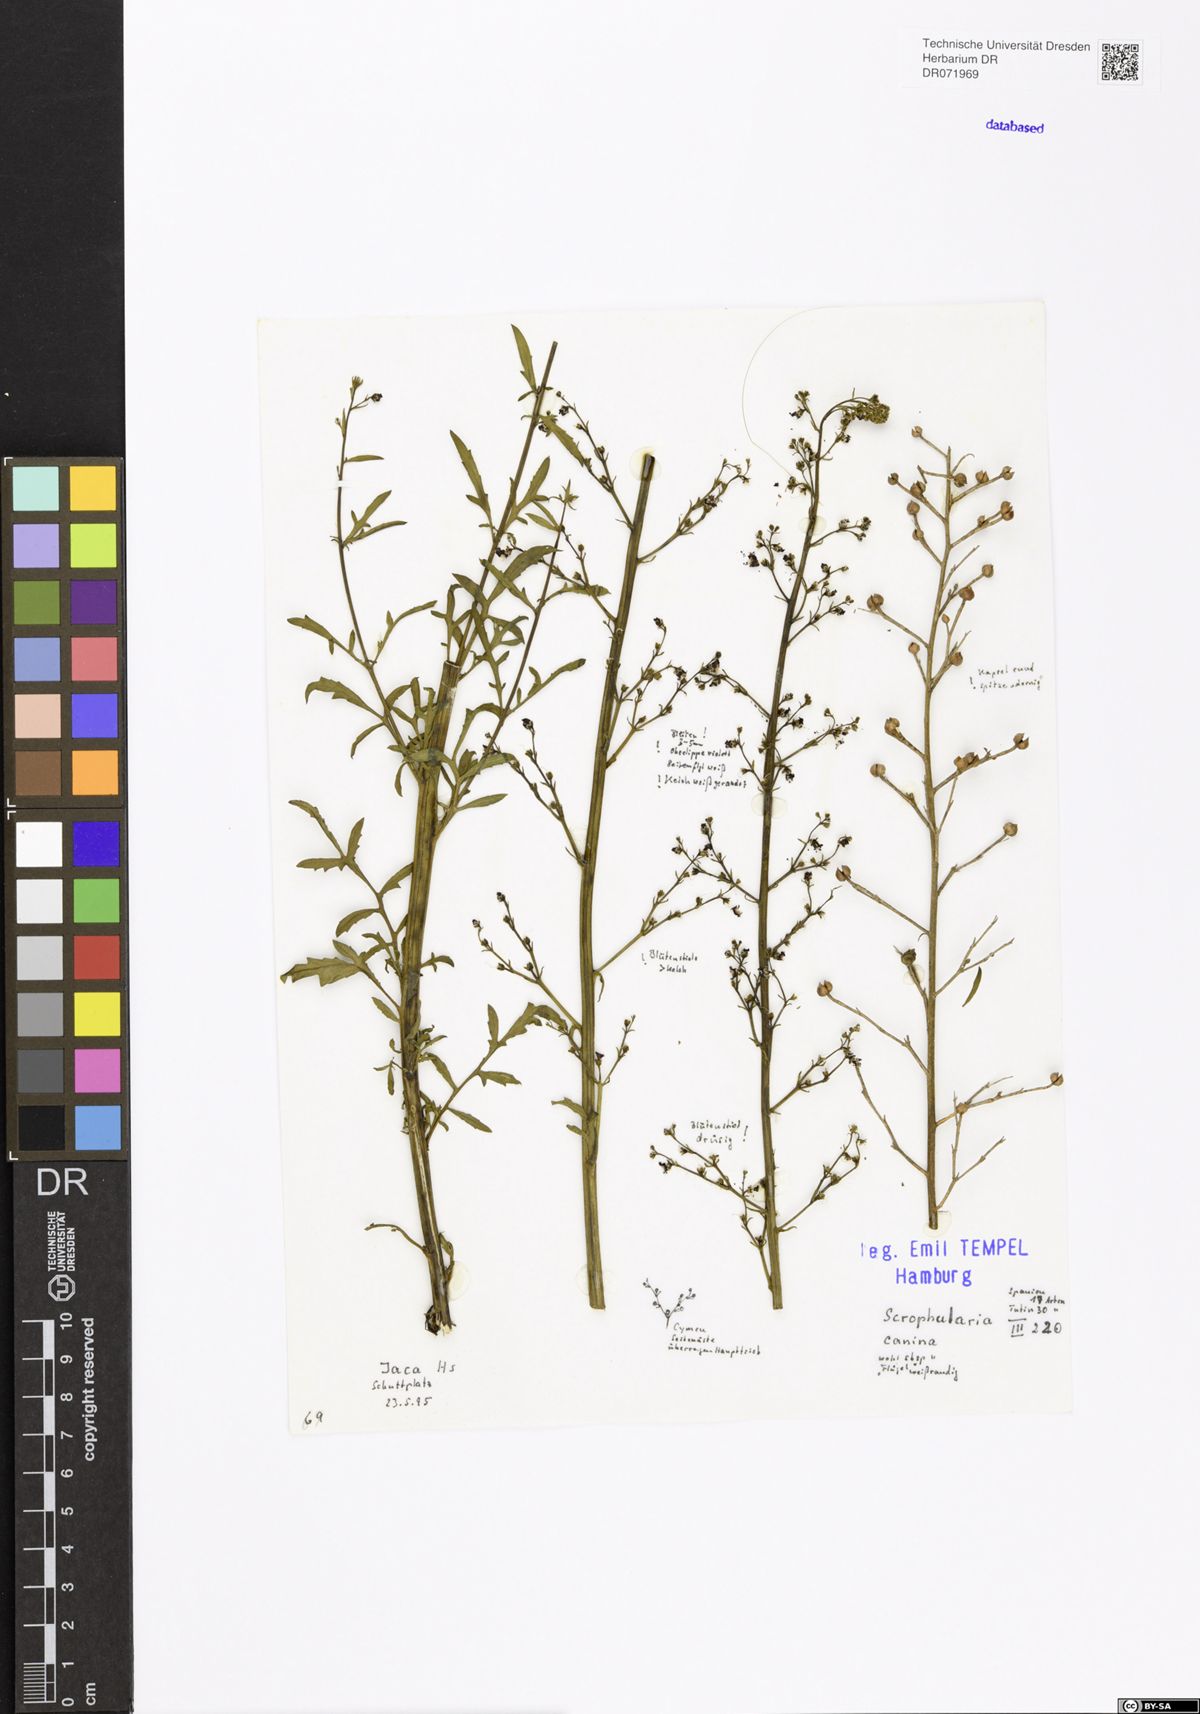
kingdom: Plantae
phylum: Tracheophyta
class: Magnoliopsida
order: Lamiales
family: Scrophulariaceae
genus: Scrophularia
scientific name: Scrophularia canina
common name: French figwort
